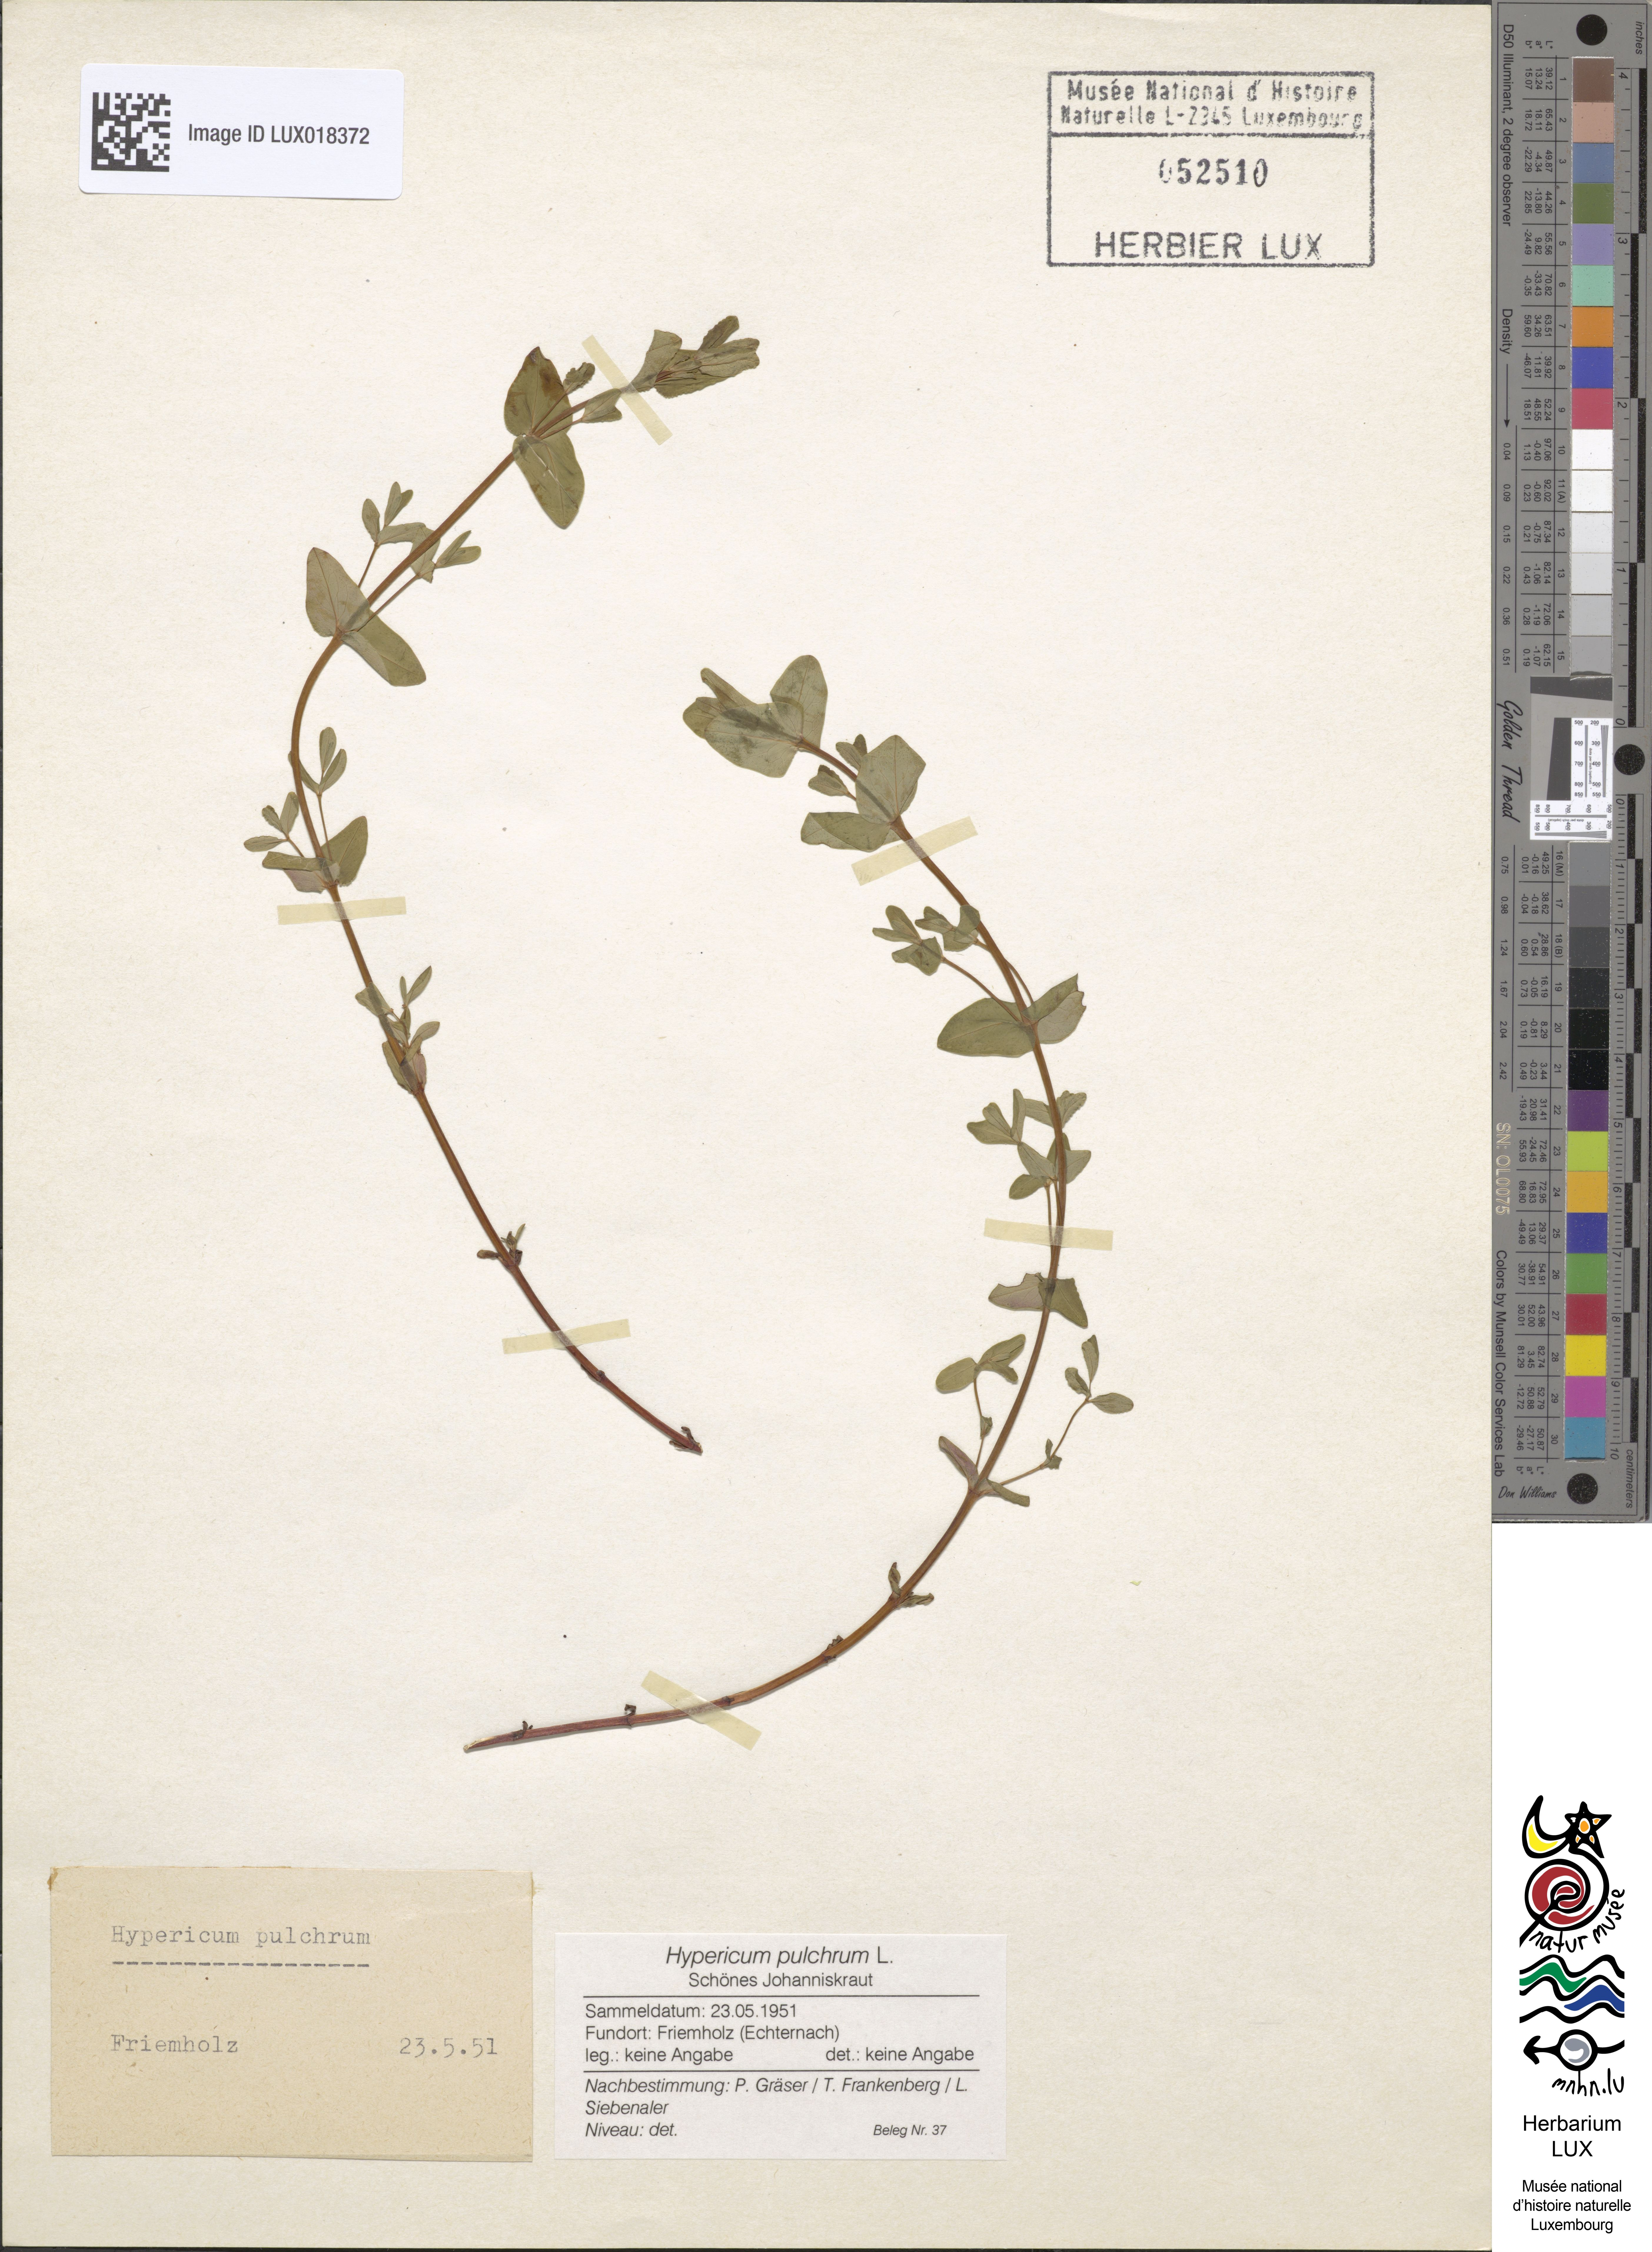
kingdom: Plantae
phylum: Tracheophyta
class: Magnoliopsida
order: Malpighiales
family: Hypericaceae
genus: Hypericum
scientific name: Hypericum pulchrum
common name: Slender st. john's-wort
